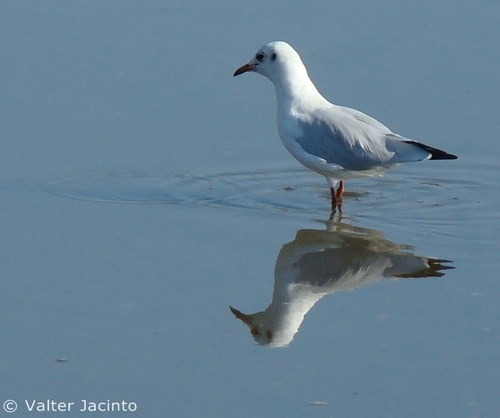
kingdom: Animalia
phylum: Chordata
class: Aves
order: Charadriiformes
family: Laridae
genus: Chroicocephalus
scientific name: Chroicocephalus ridibundus
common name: Black-headed gull
